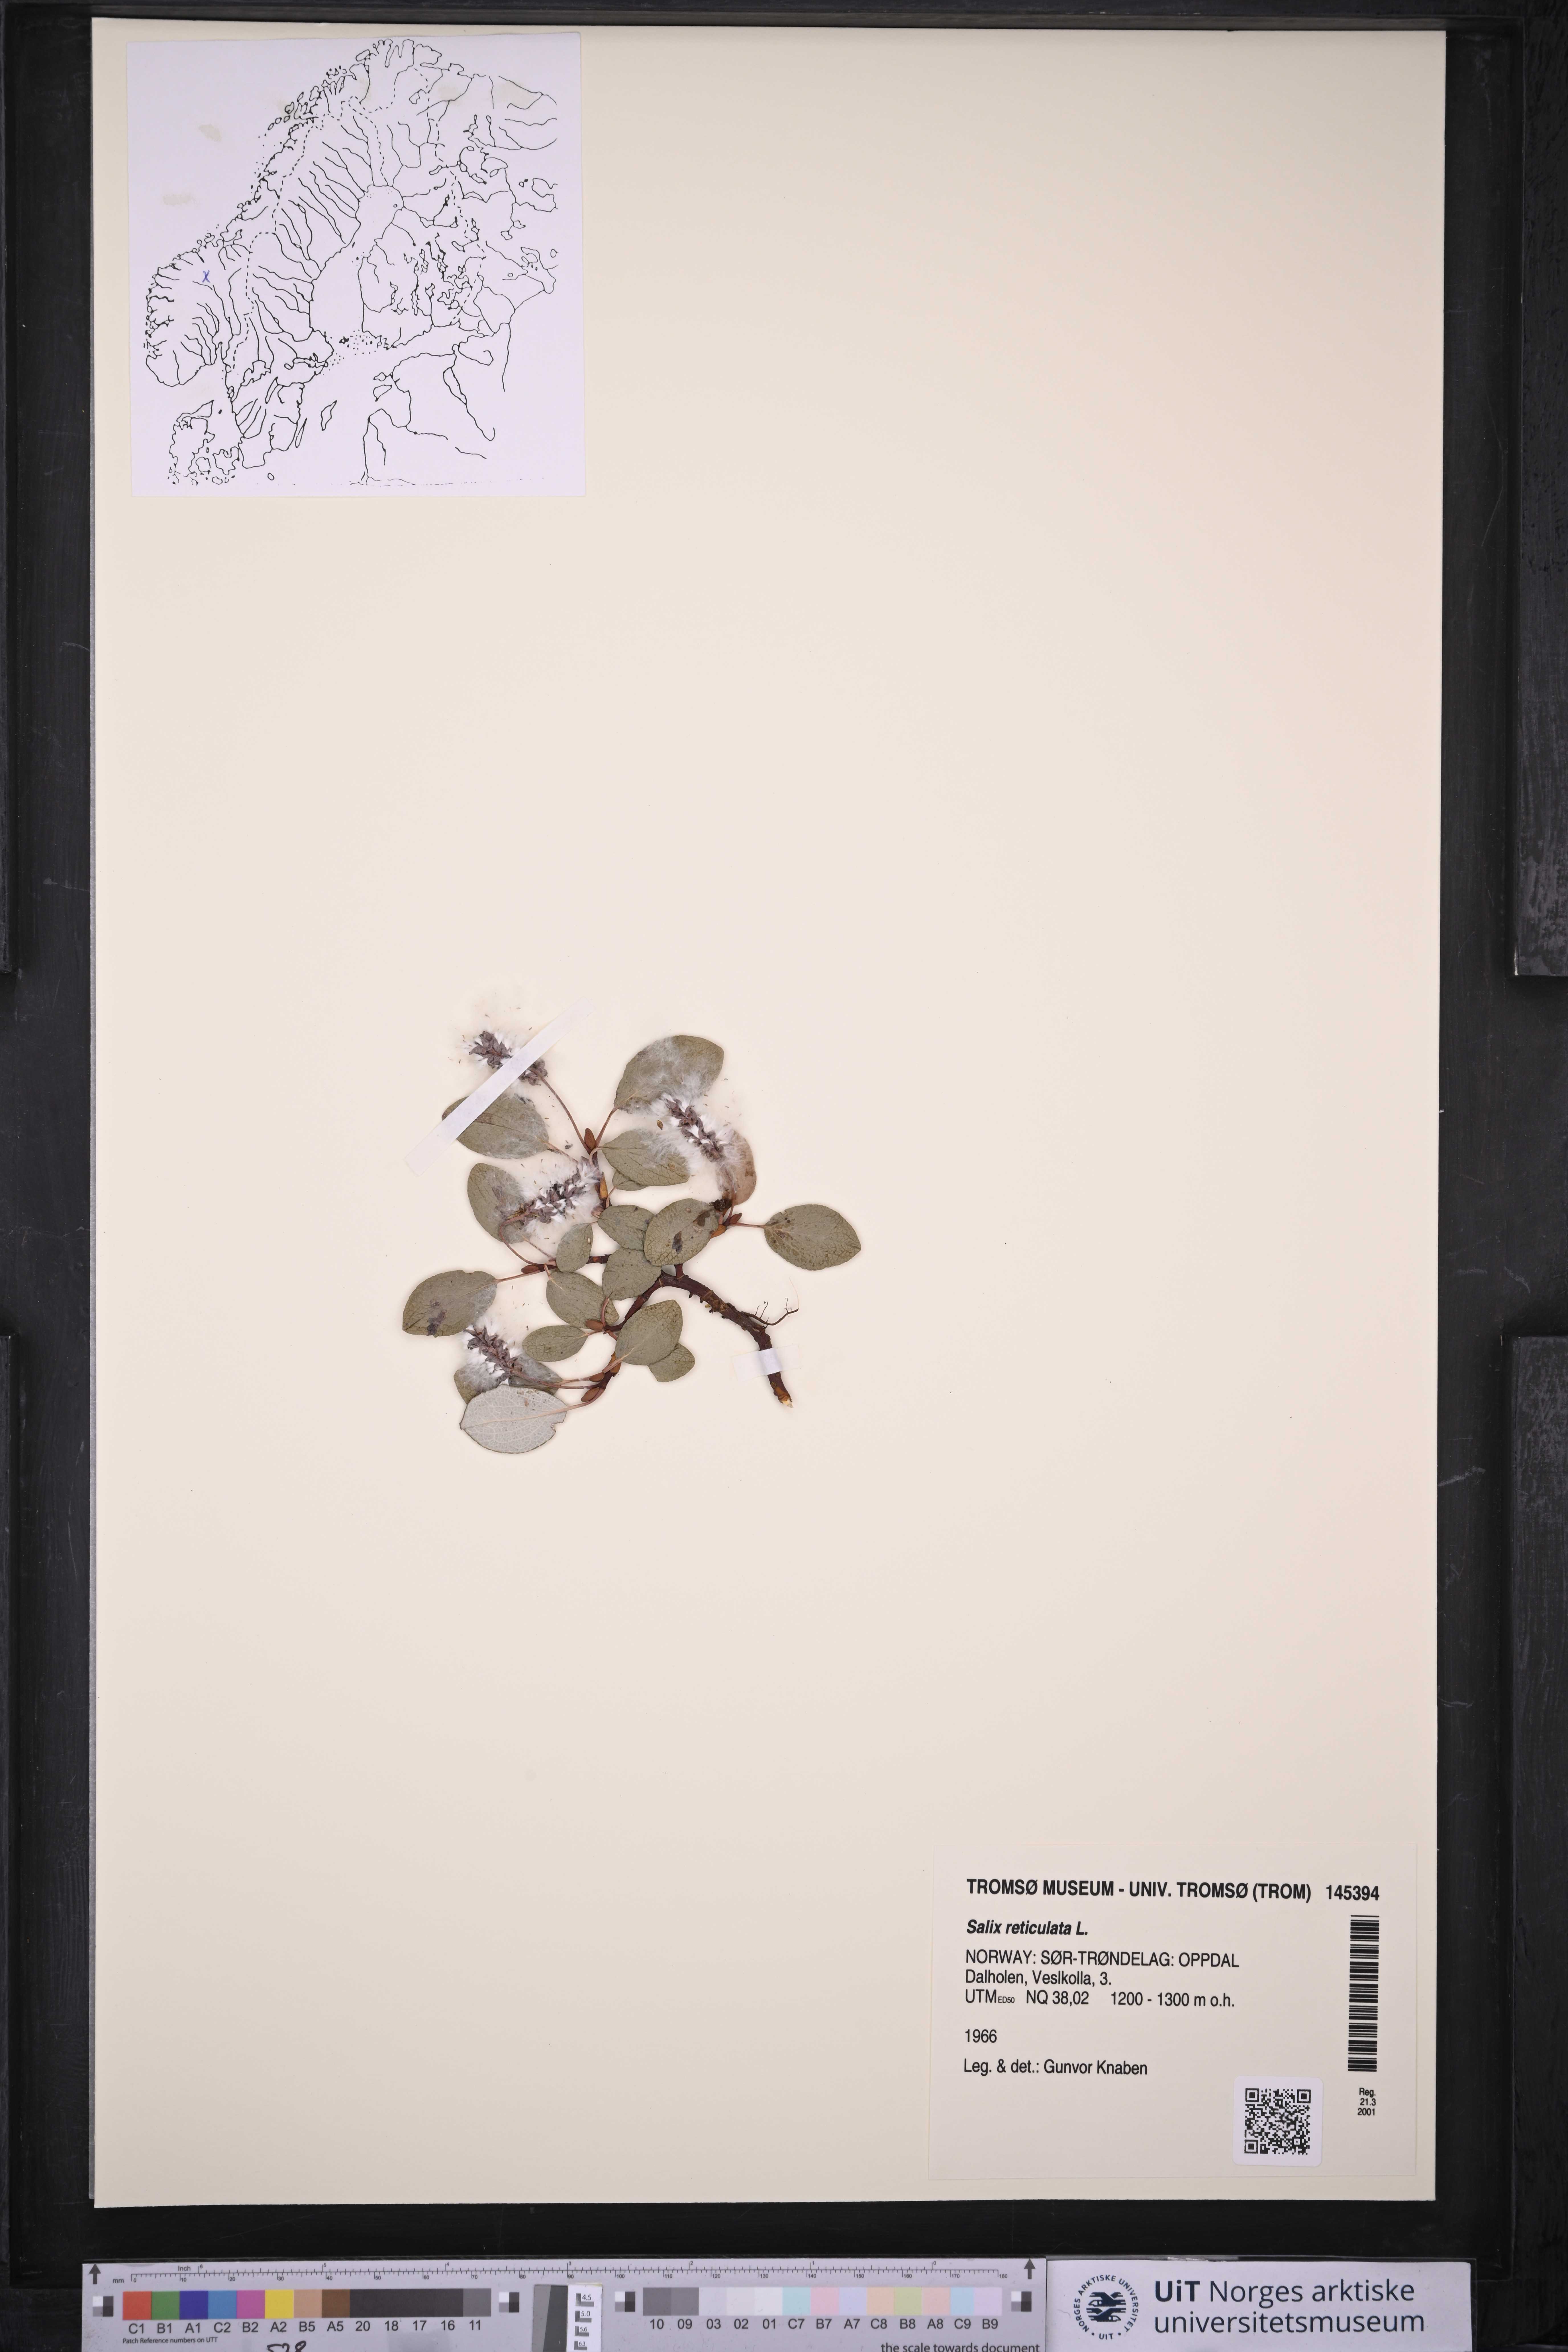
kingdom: Plantae
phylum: Tracheophyta
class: Magnoliopsida
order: Malpighiales
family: Salicaceae
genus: Salix
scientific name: Salix reticulata
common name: Net-leaved willow
